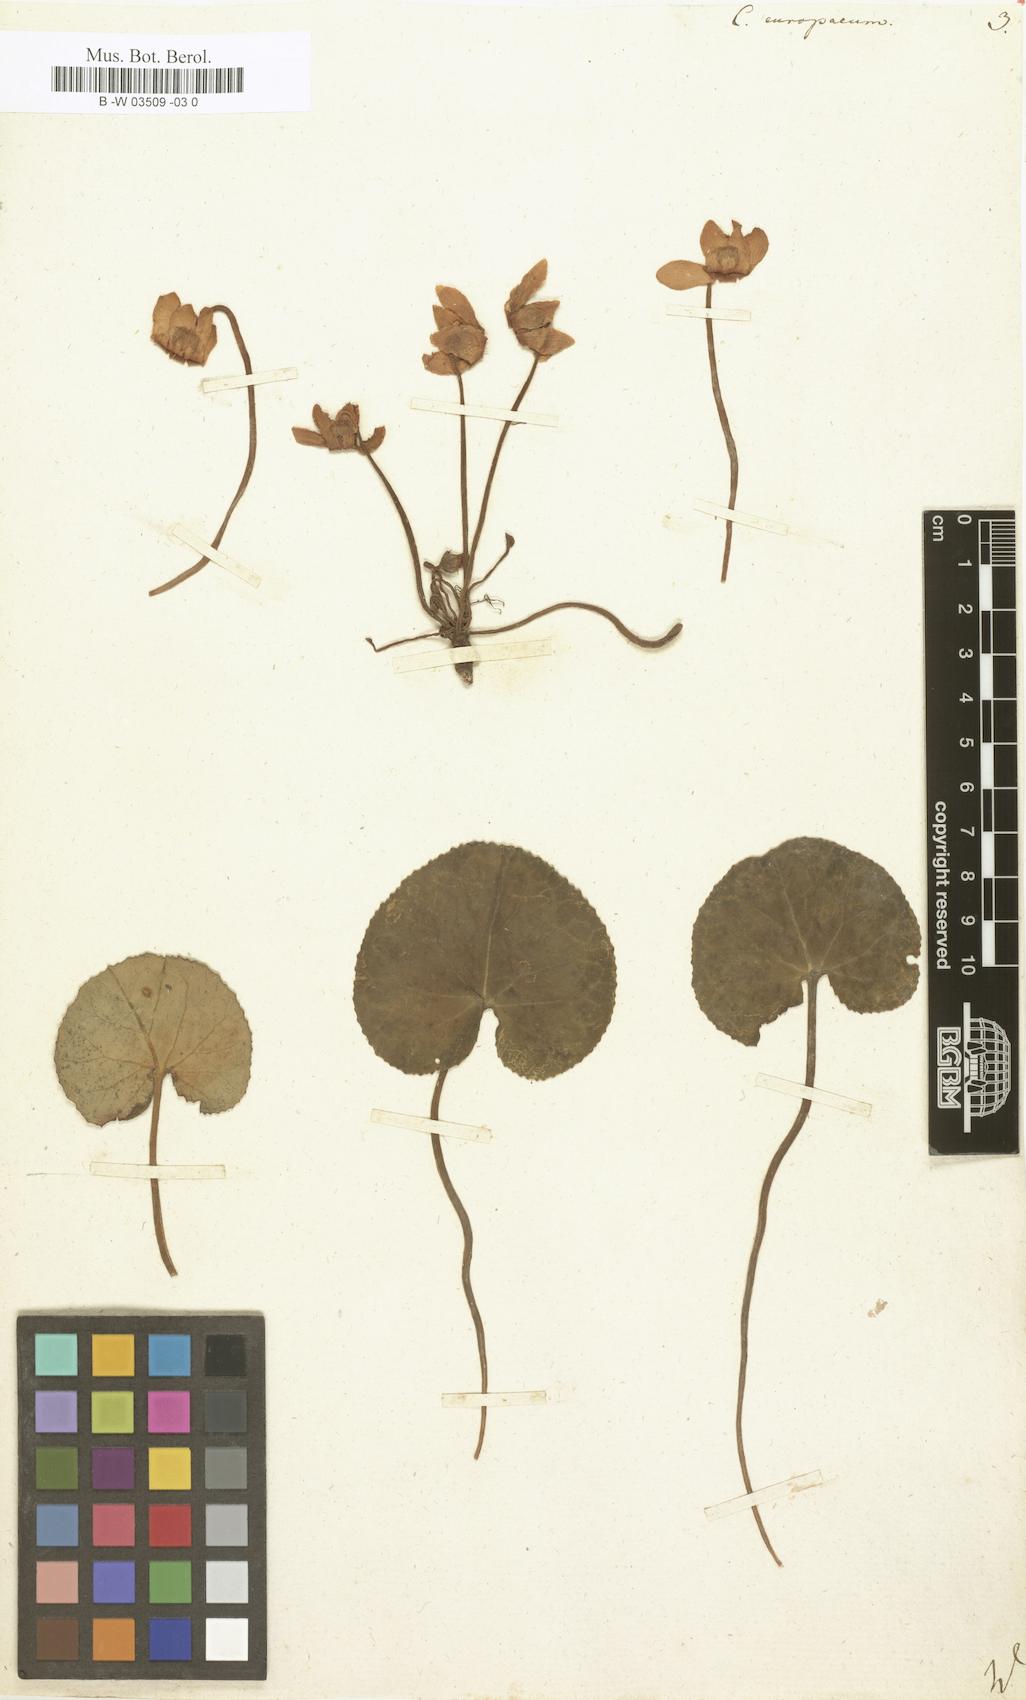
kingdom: Plantae
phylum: Tracheophyta
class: Magnoliopsida
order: Ericales
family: Primulaceae
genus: Cyclamen
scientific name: Cyclamen europaeum
